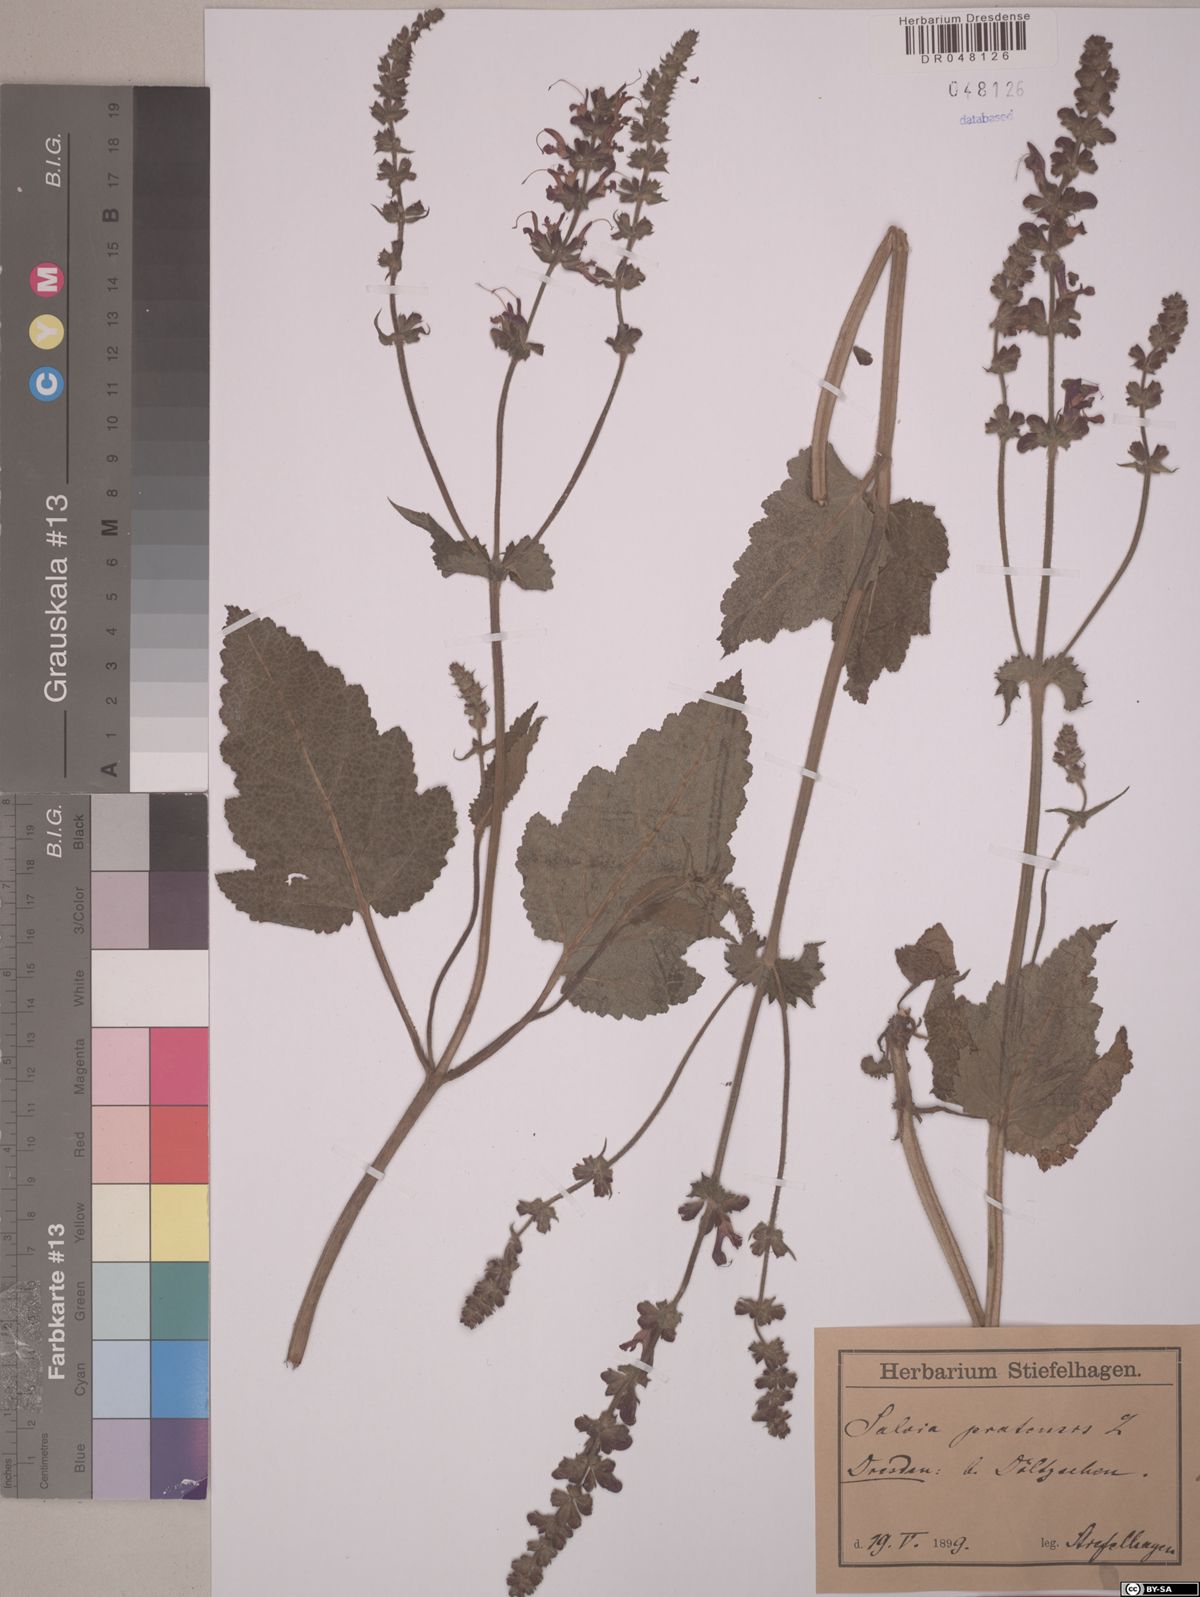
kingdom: Plantae
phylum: Tracheophyta
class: Magnoliopsida
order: Lamiales
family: Lamiaceae
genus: Salvia
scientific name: Salvia pratensis
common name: Meadow sage
